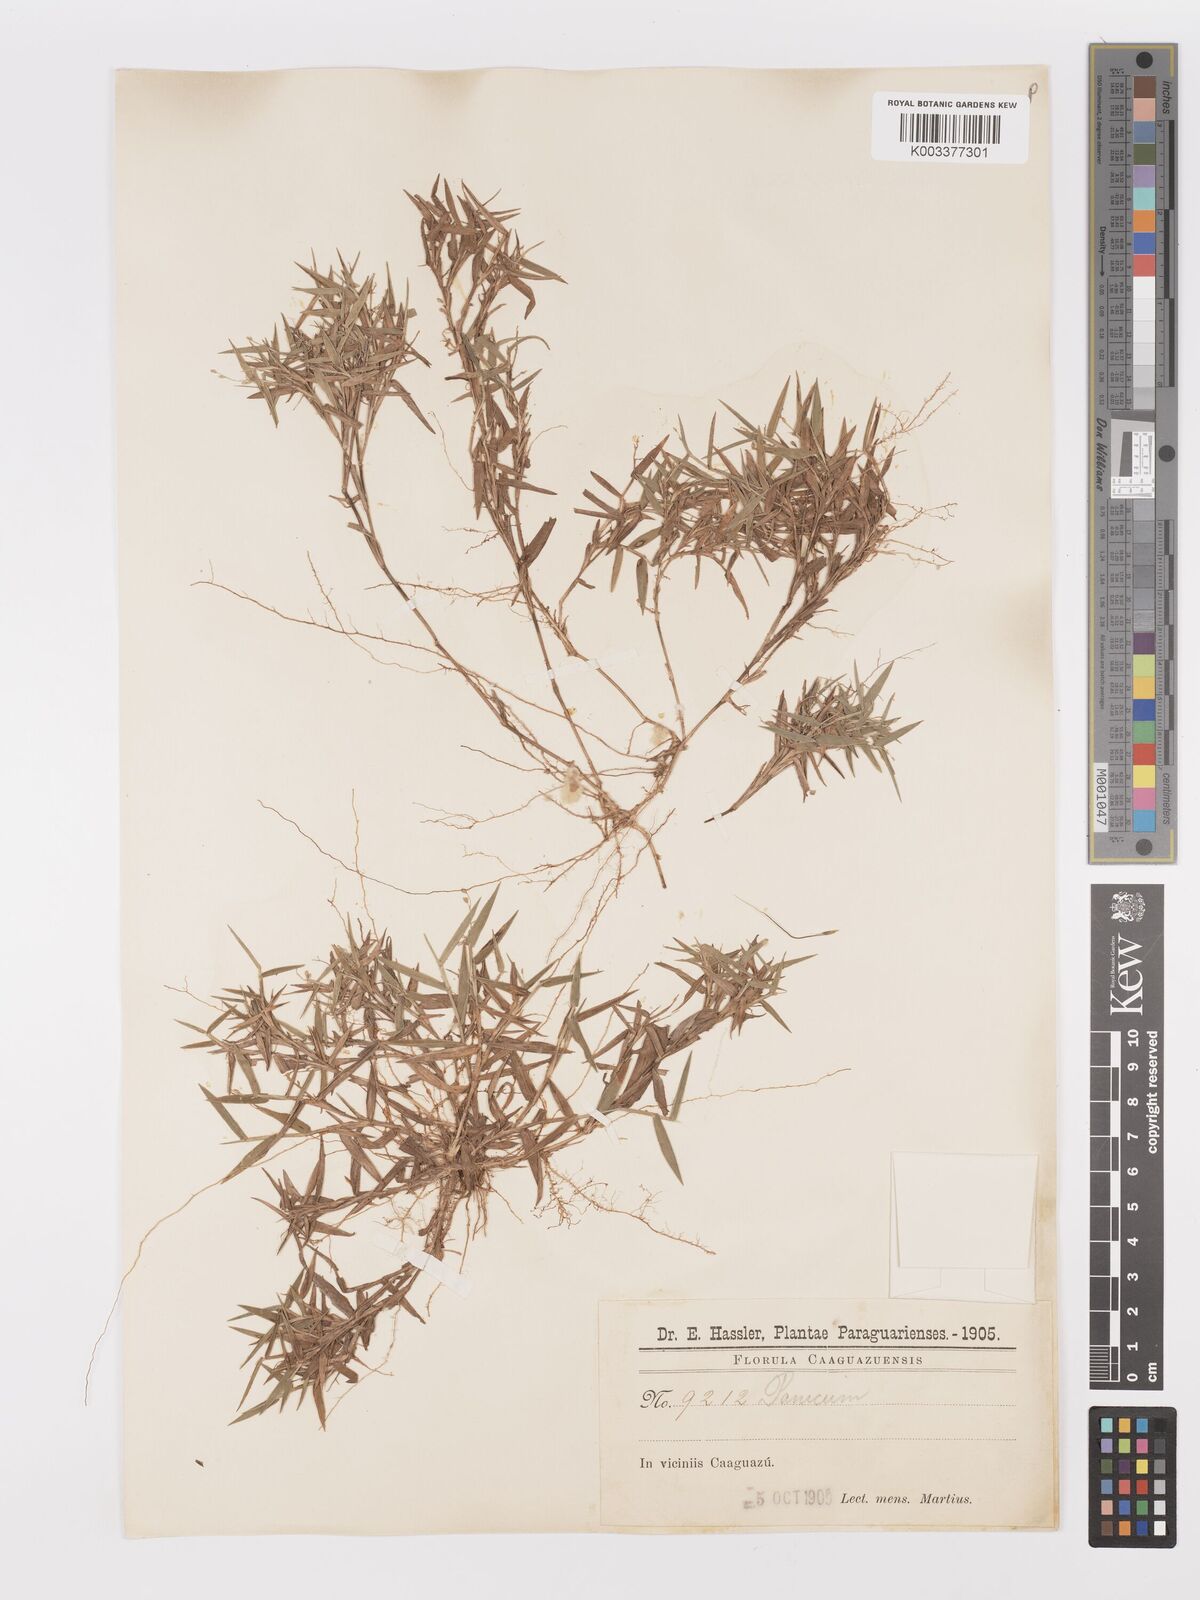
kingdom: Plantae
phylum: Tracheophyta
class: Liliopsida
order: Poales
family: Poaceae
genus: Dichanthelium
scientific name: Dichanthelium sabulorum
